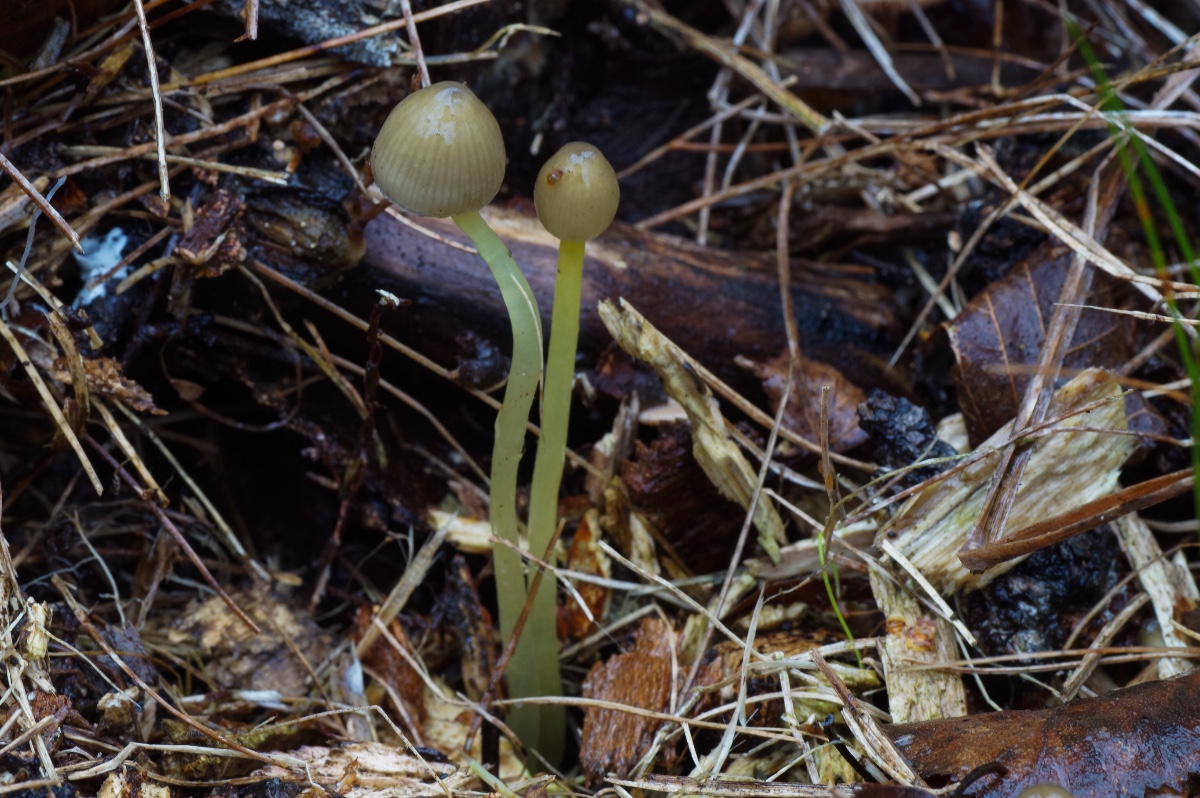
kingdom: Fungi
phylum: Basidiomycota
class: Agaricomycetes
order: Agaricales
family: Mycenaceae
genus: Mycena
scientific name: Mycena epipterygia
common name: gulstokket huesvamp
